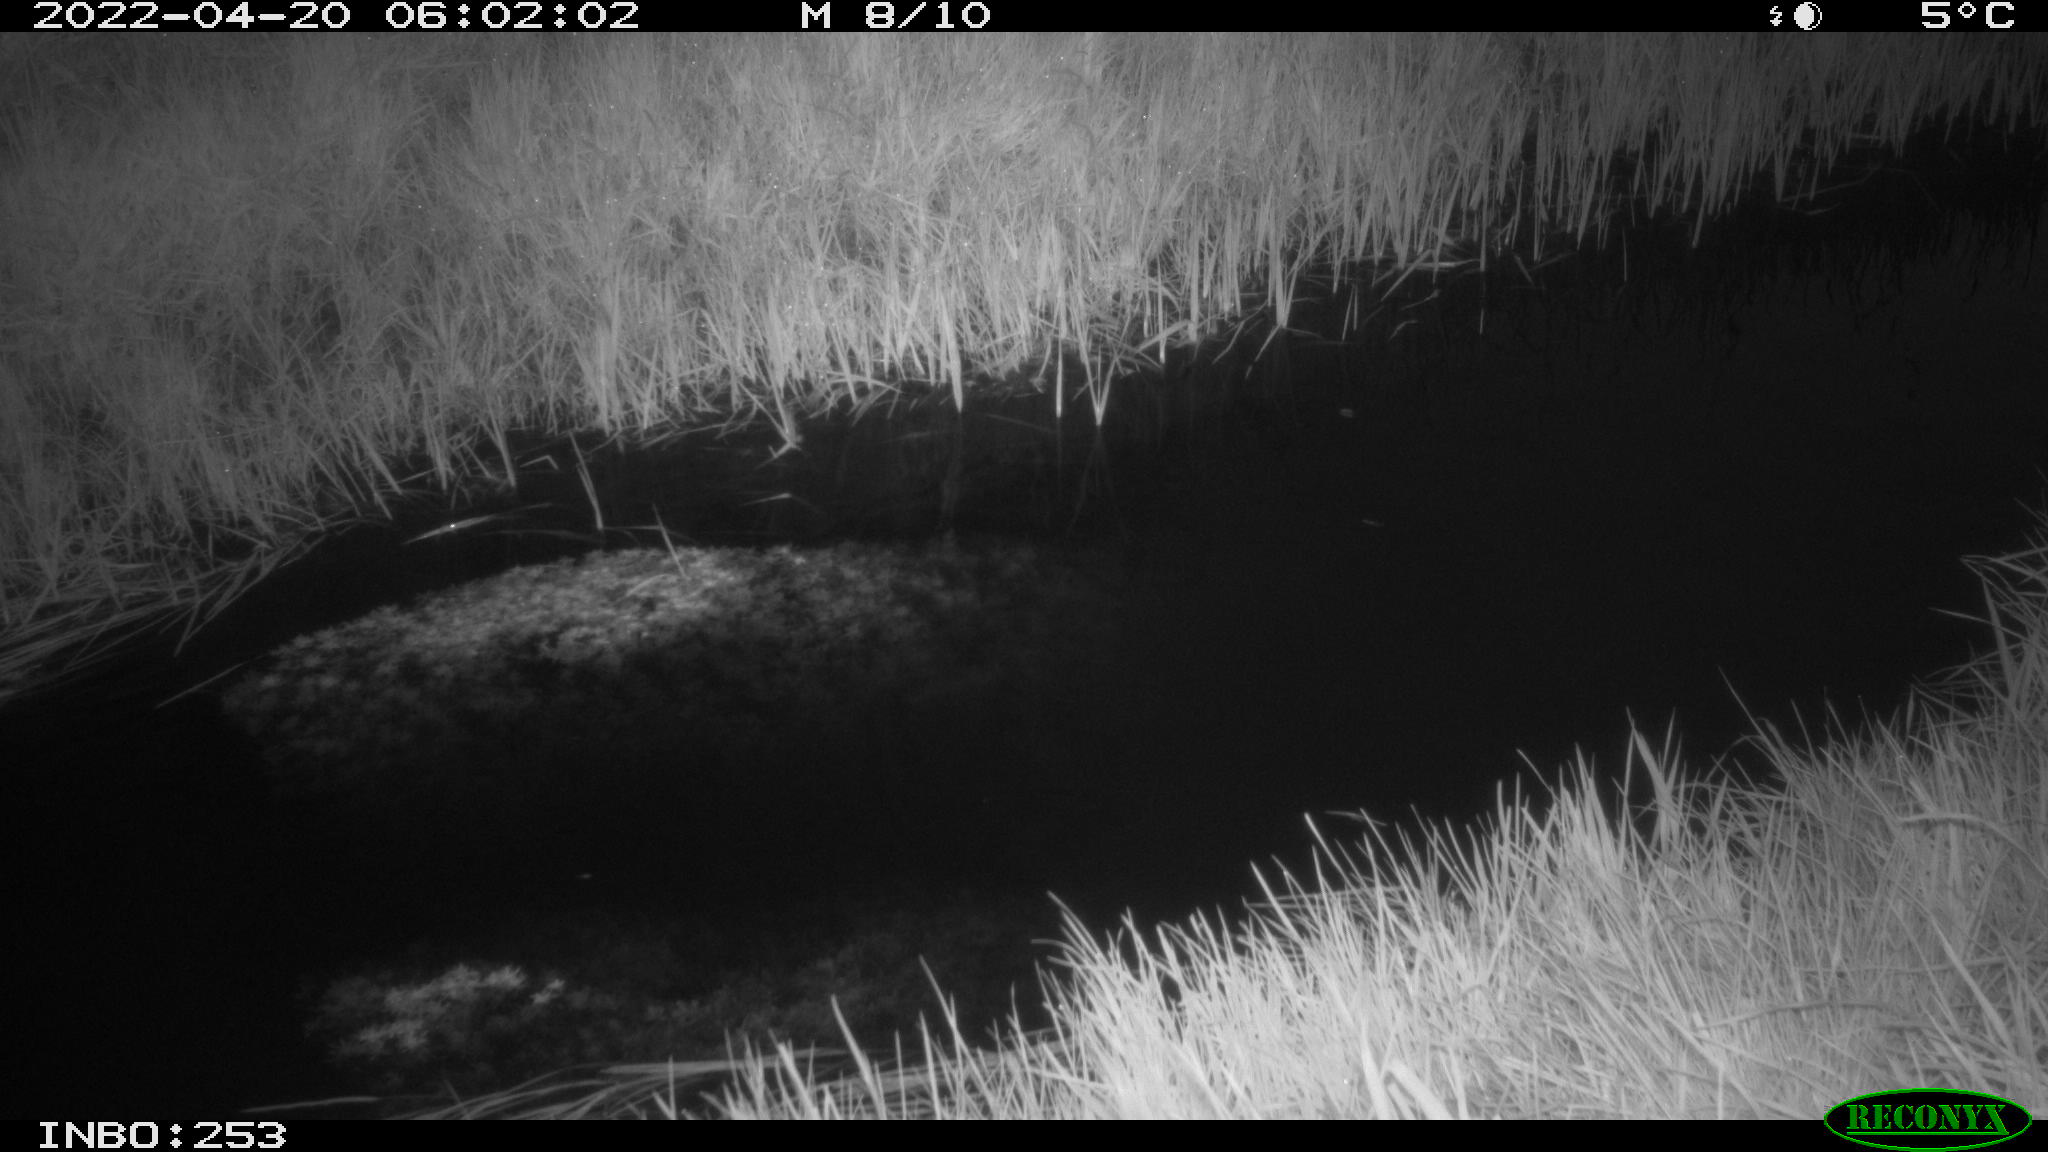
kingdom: Animalia
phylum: Chordata
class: Aves
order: Anseriformes
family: Anatidae
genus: Anas
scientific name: Anas platyrhynchos
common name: Mallard
